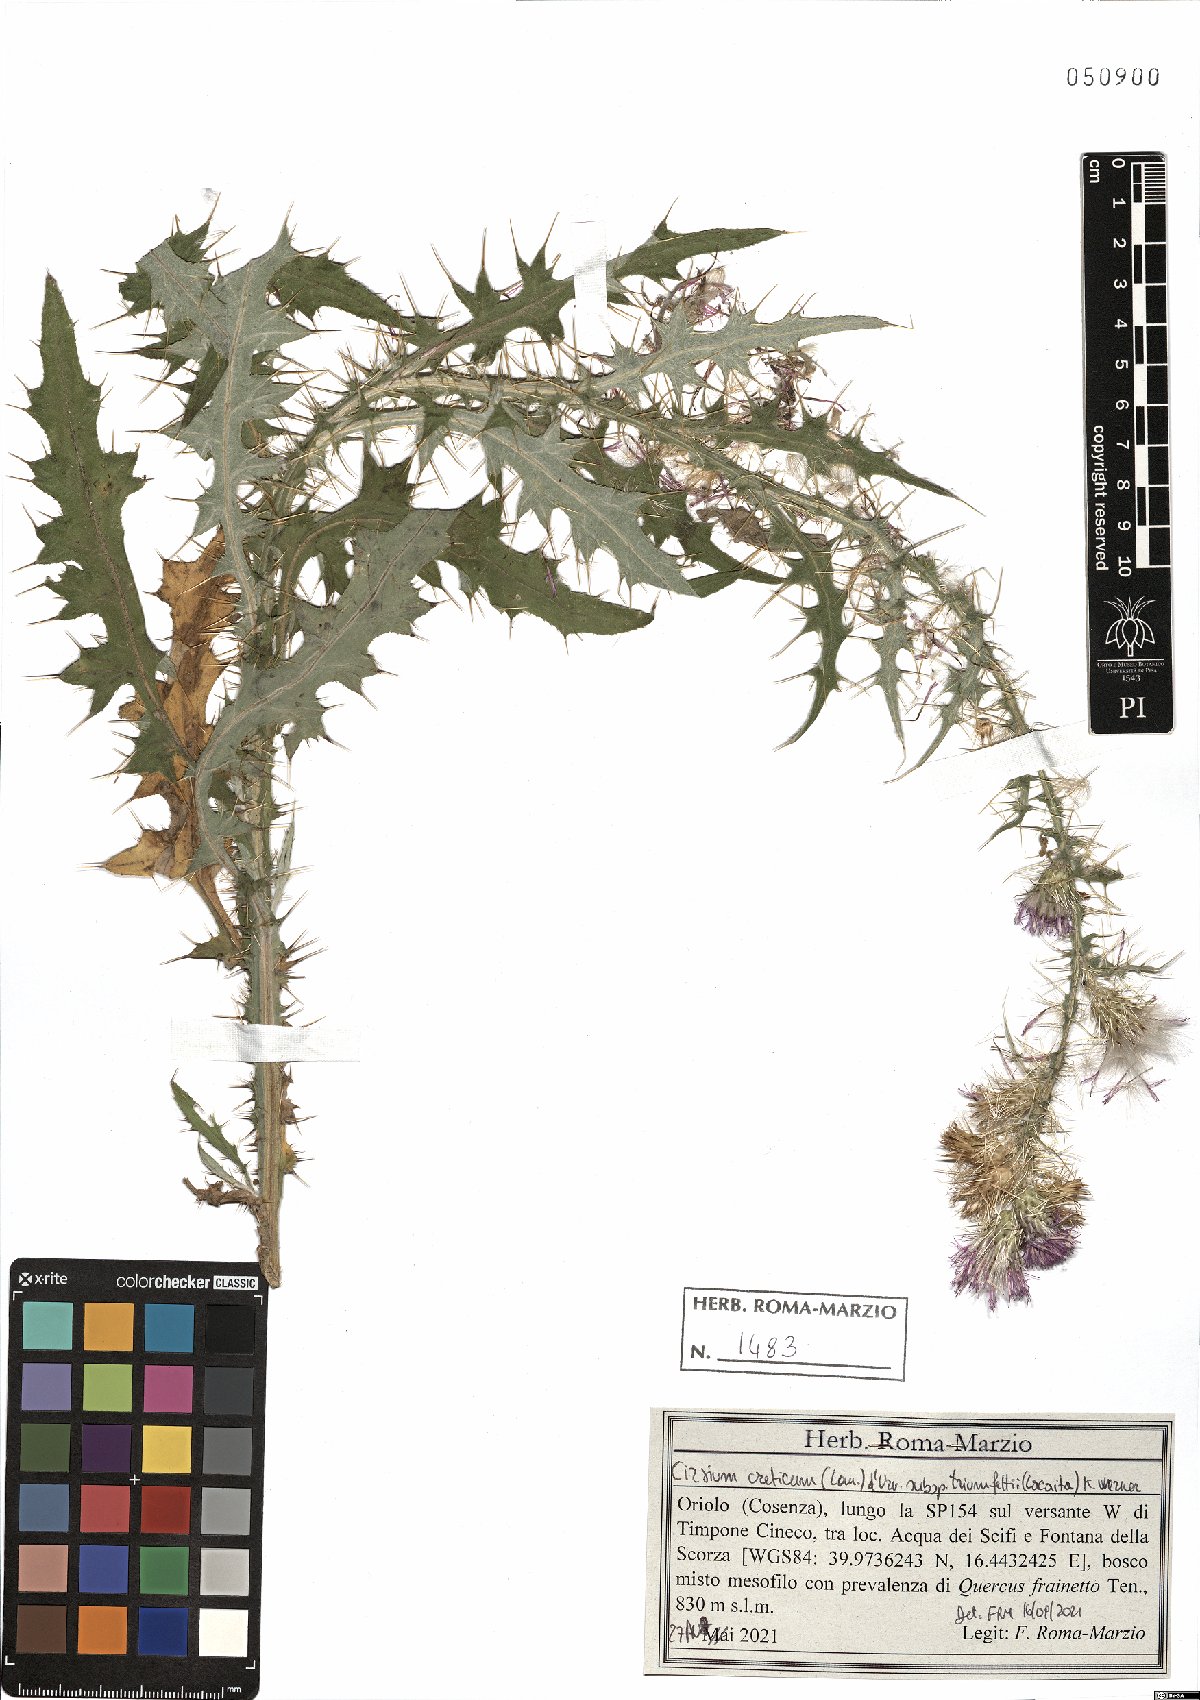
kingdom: Plantae
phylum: Tracheophyta
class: Magnoliopsida
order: Asterales
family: Asteraceae
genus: Cirsium
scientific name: Cirsium creticum
